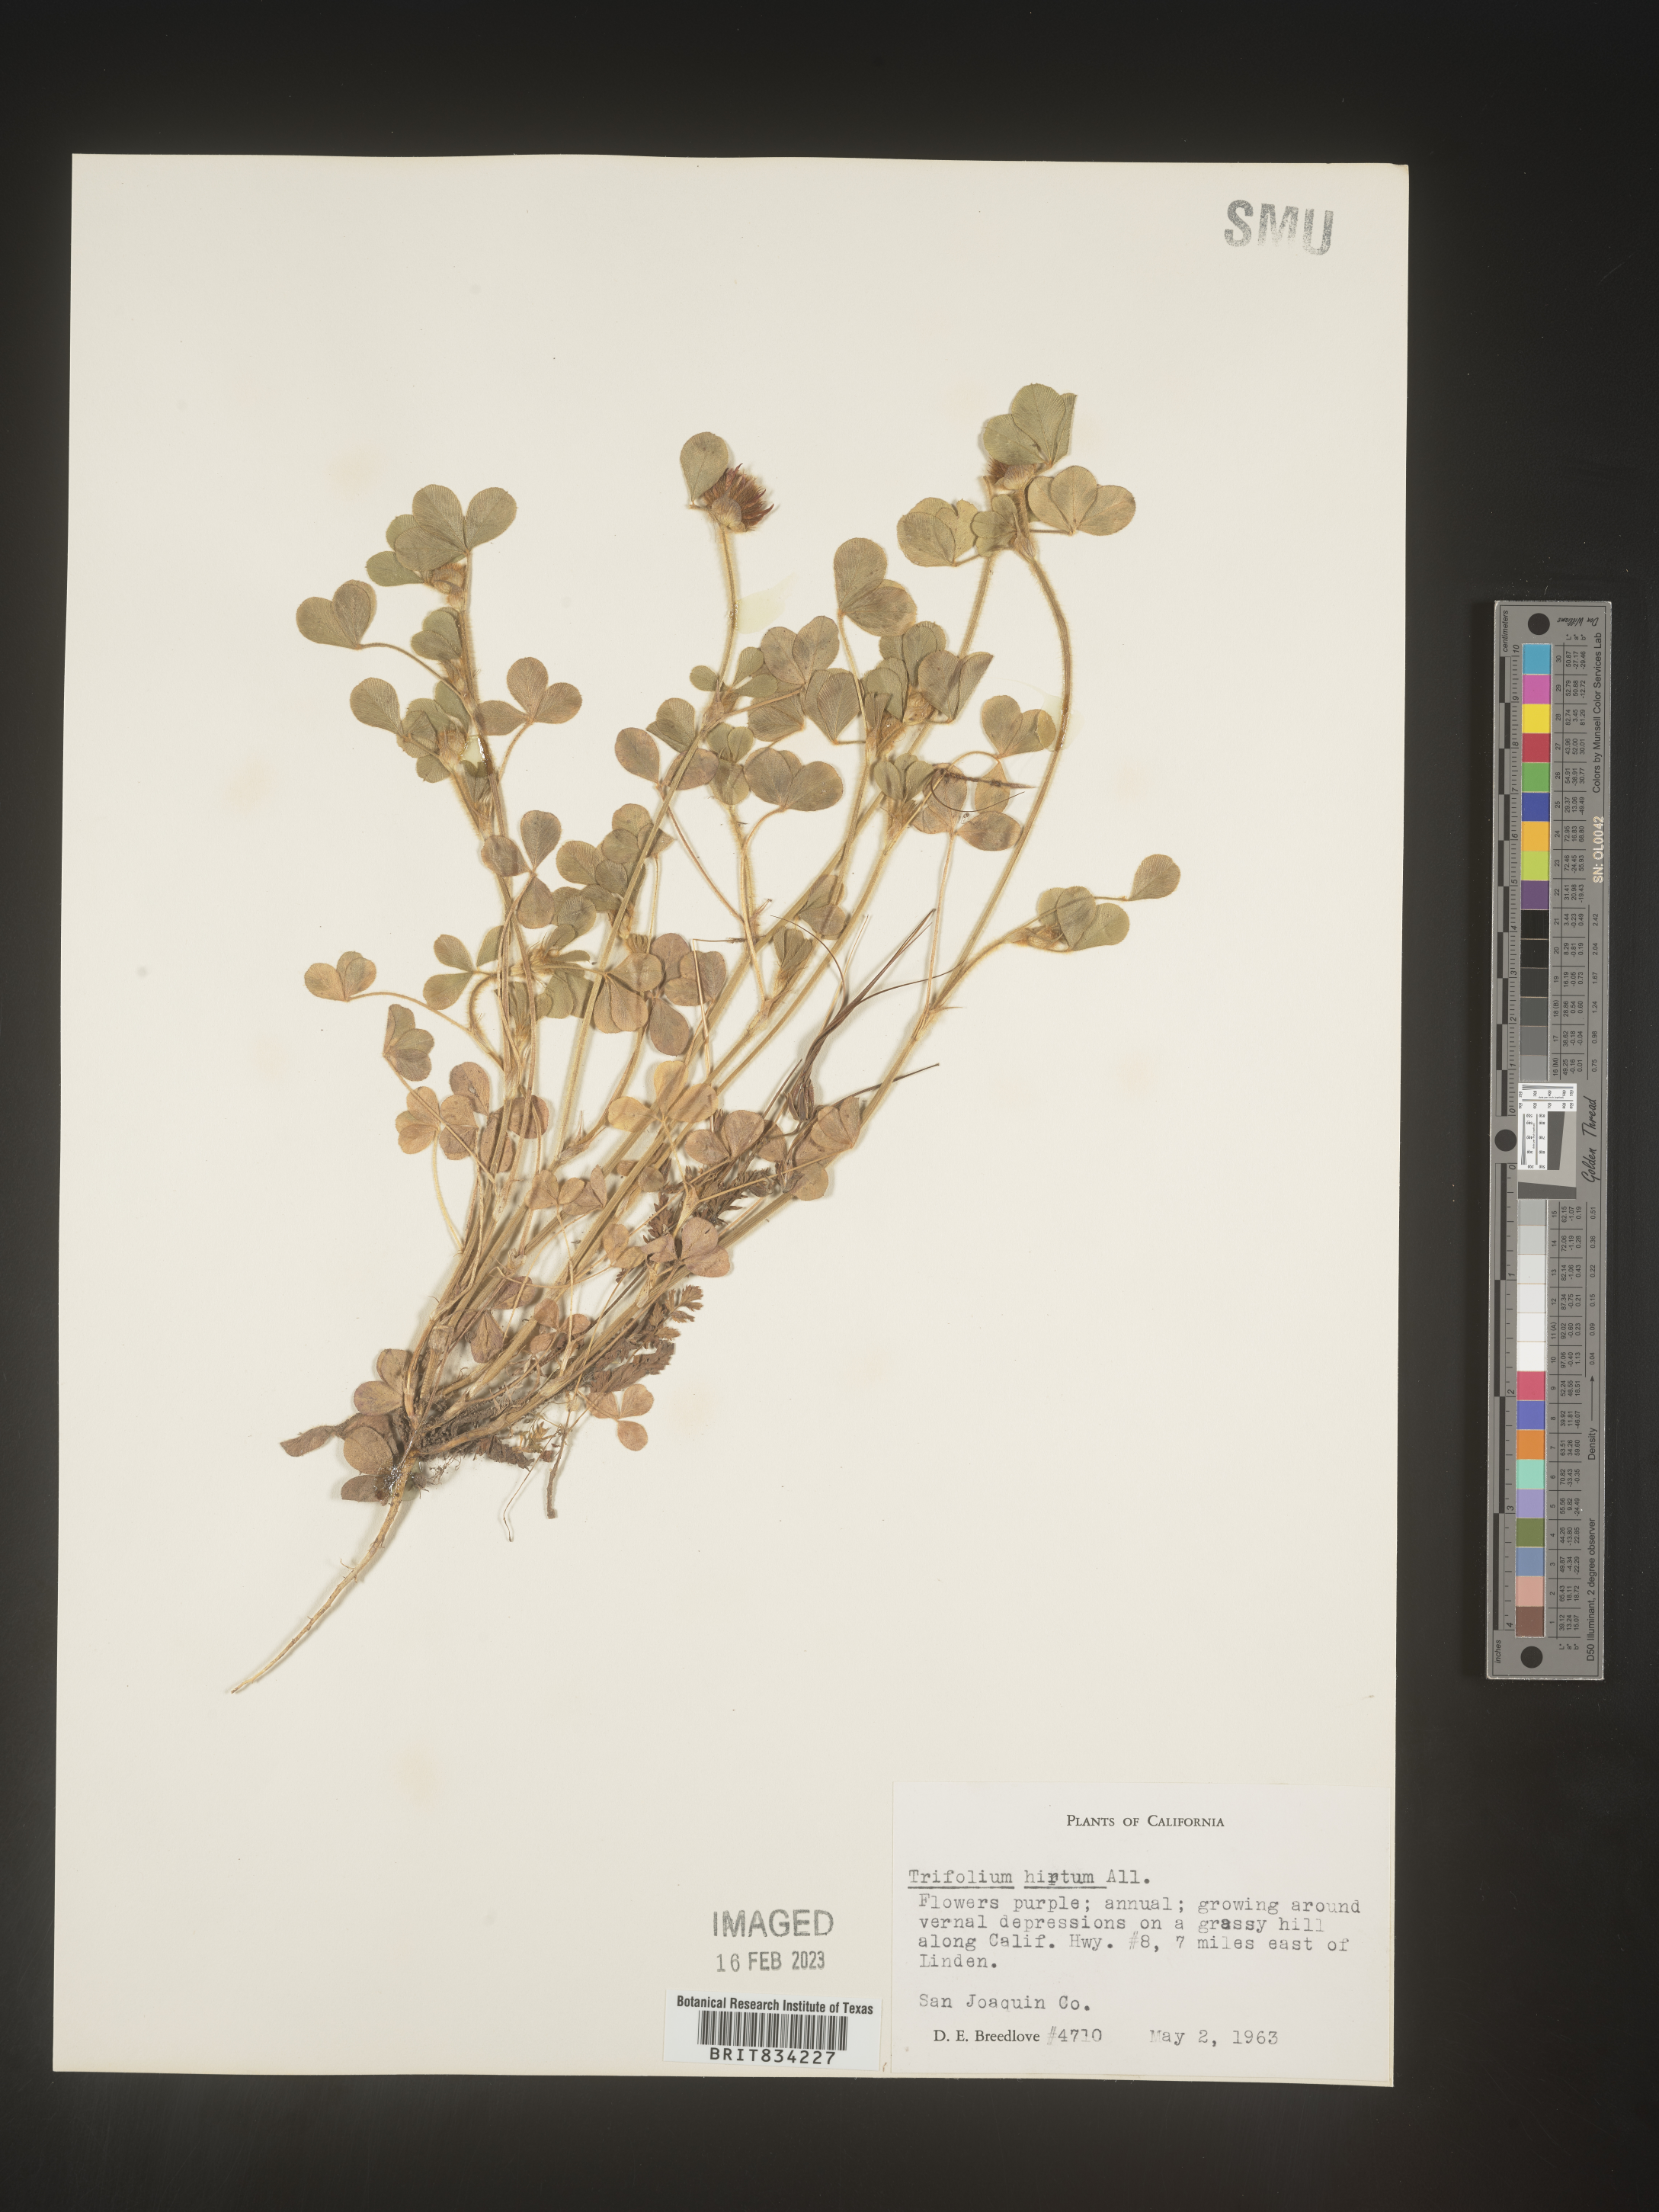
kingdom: Plantae
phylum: Tracheophyta
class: Magnoliopsida
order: Fabales
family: Fabaceae
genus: Trifolium
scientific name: Trifolium
